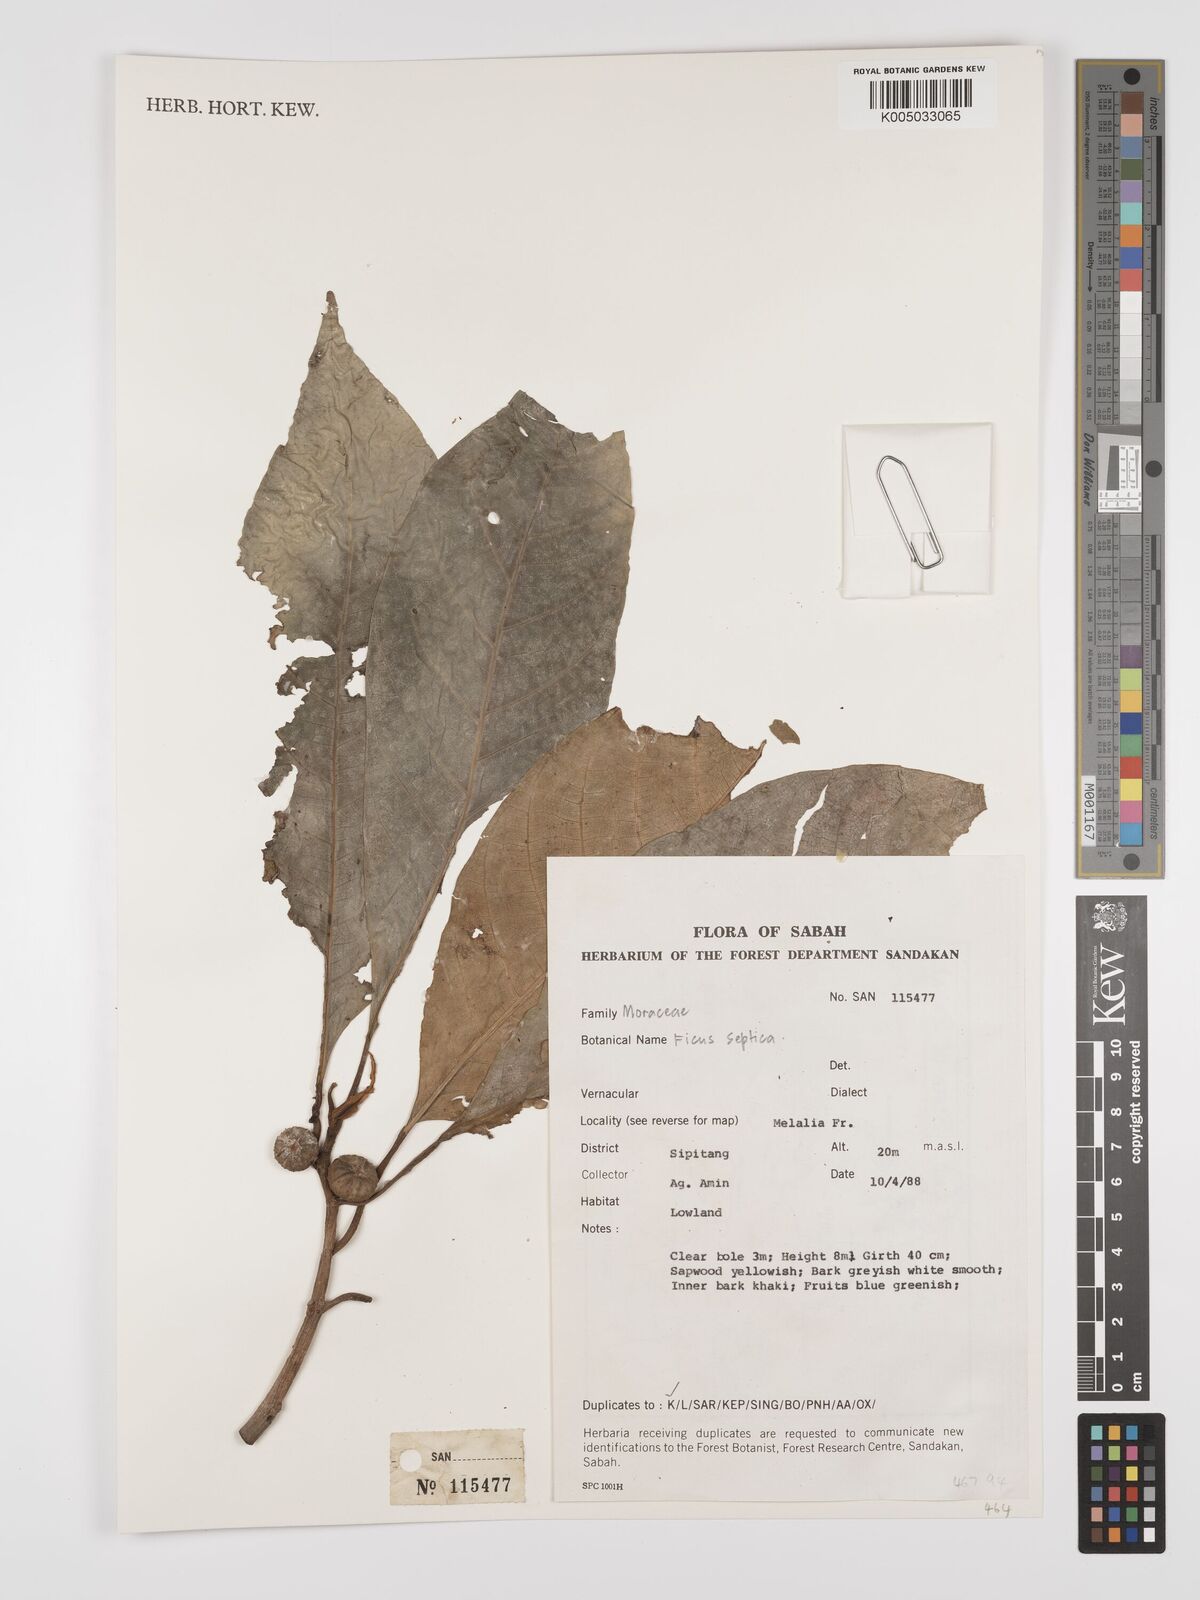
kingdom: Plantae
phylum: Tracheophyta
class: Magnoliopsida
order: Rosales
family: Moraceae
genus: Ficus
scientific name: Ficus septica
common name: Septic fig
